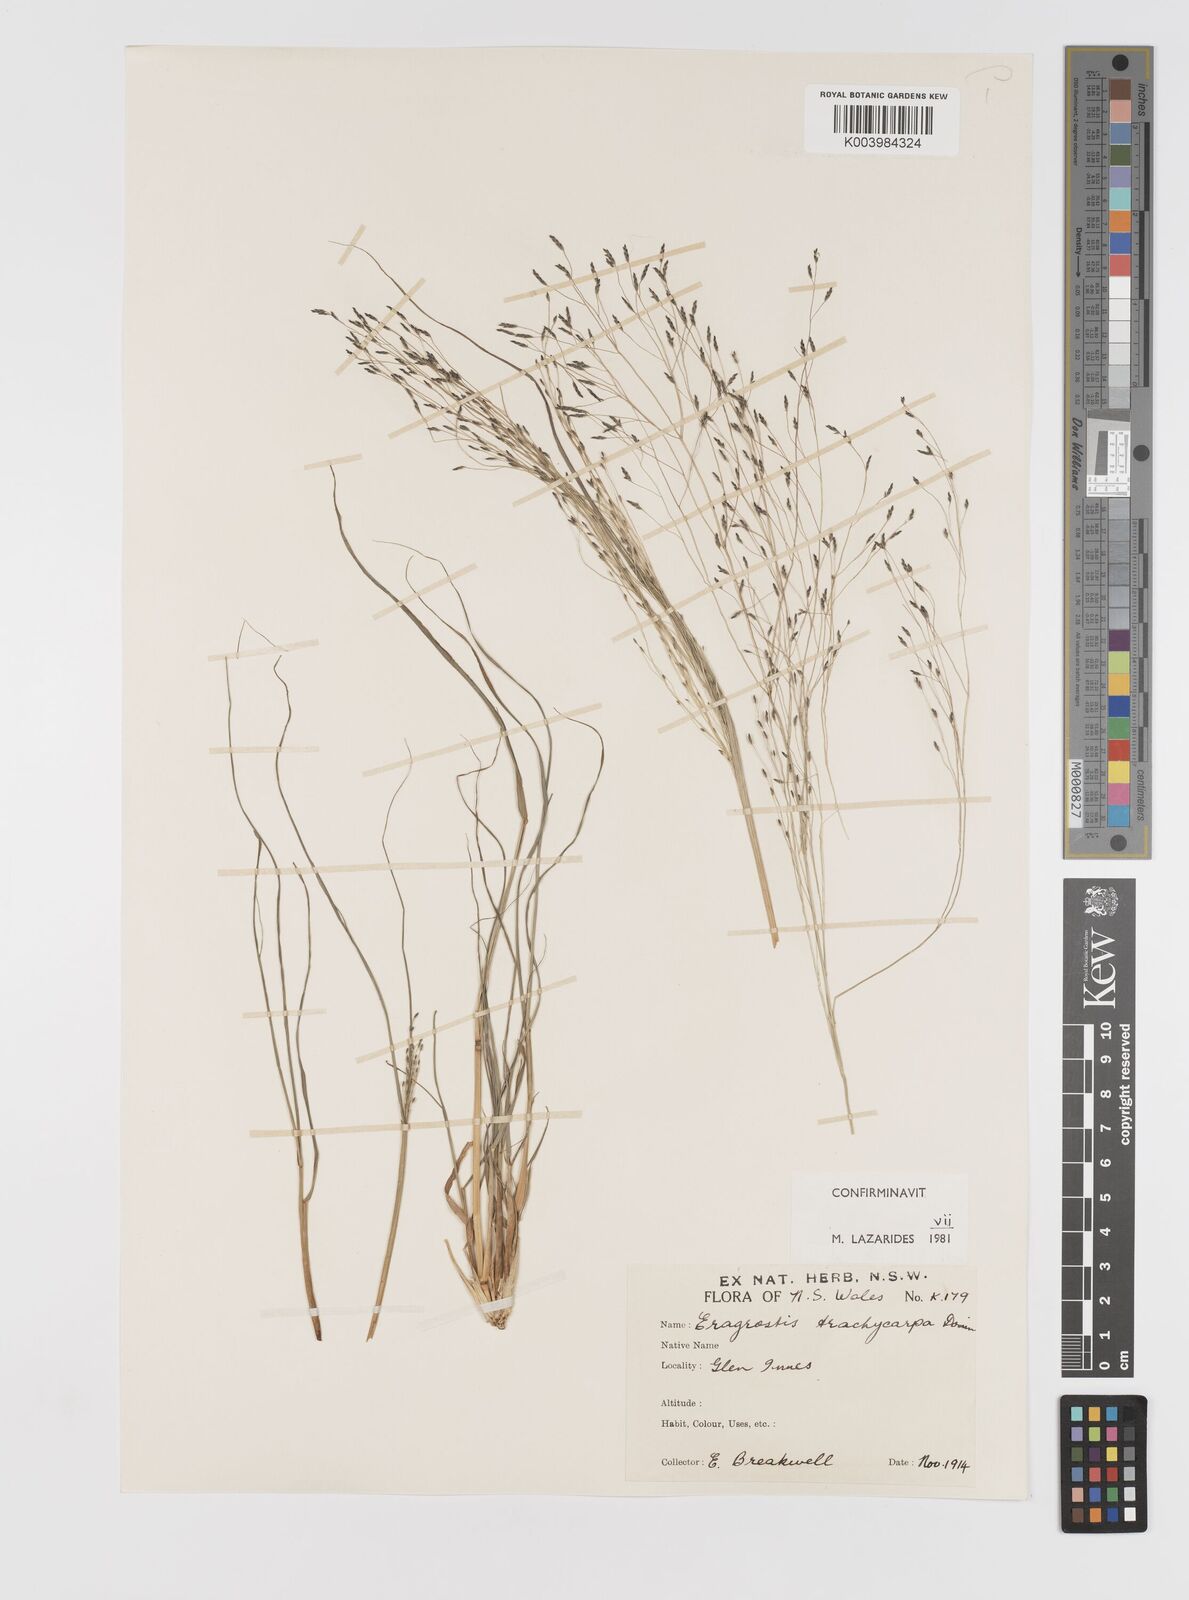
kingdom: Plantae
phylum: Tracheophyta
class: Liliopsida
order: Poales
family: Poaceae
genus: Eragrostis
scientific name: Eragrostis trachycarpa
